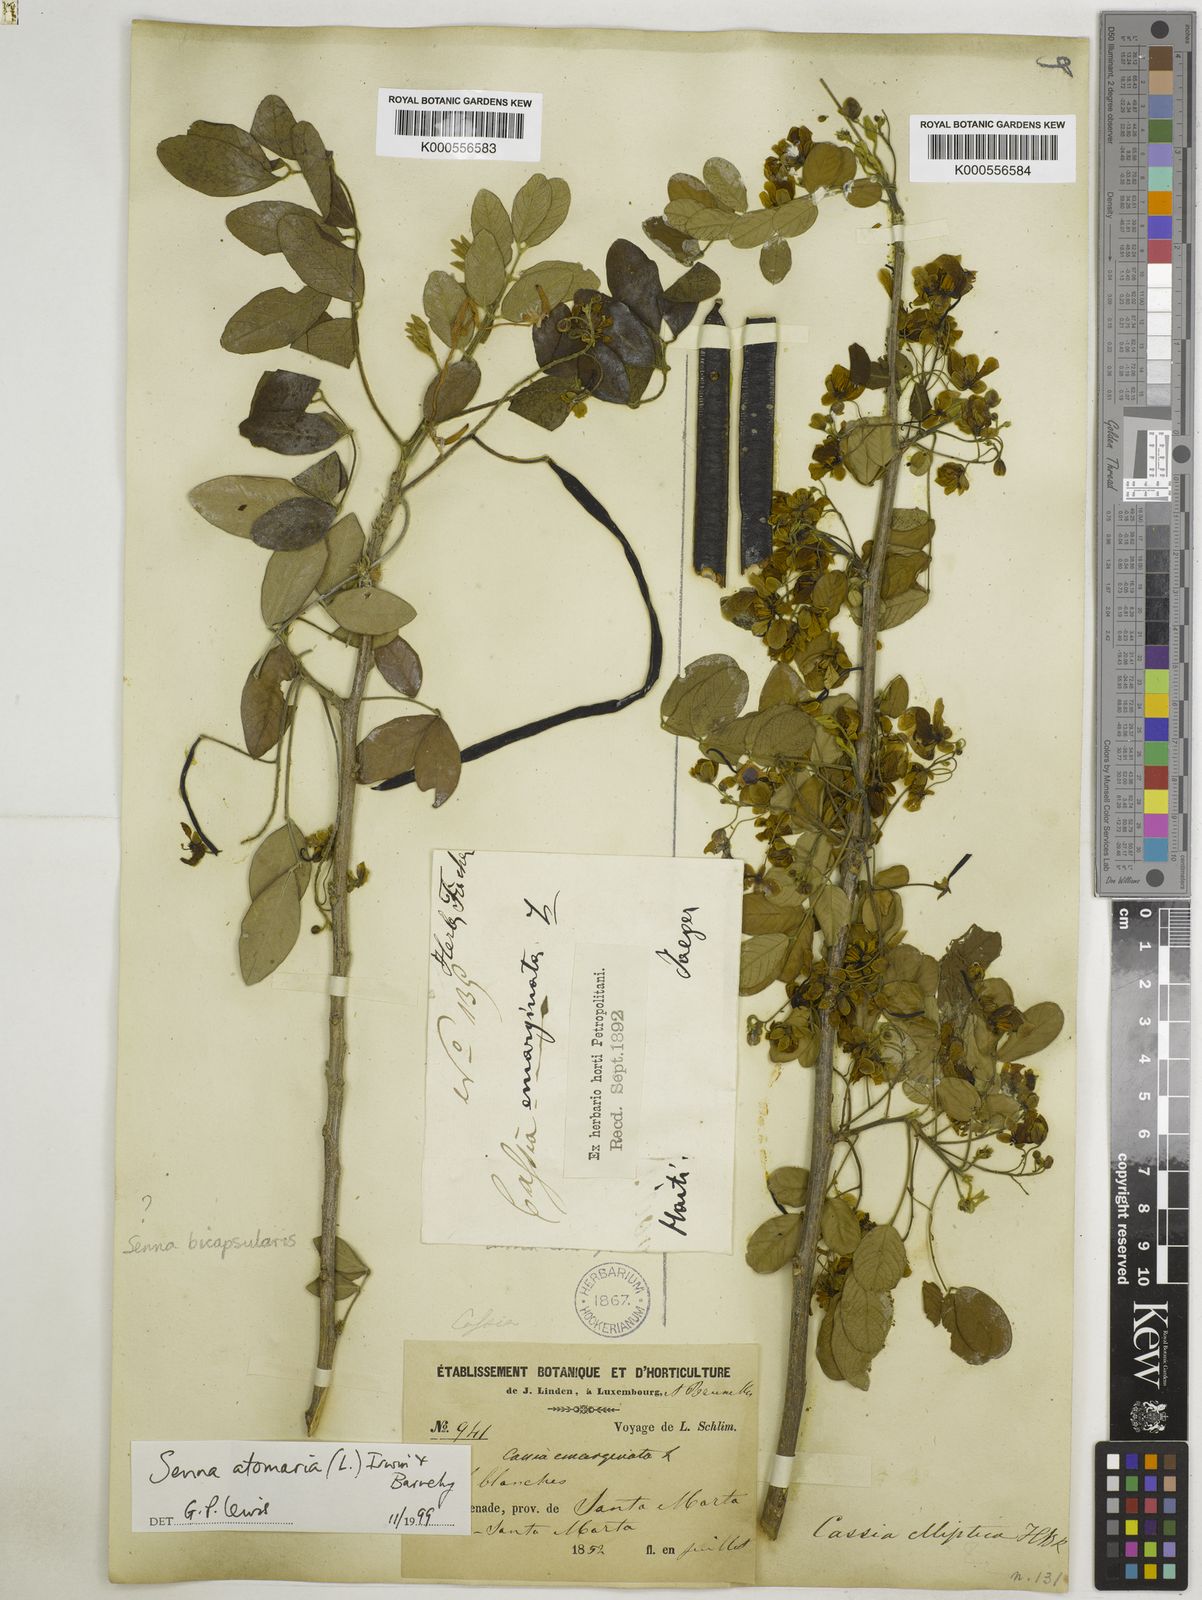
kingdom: Plantae
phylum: Tracheophyta
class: Magnoliopsida
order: Fabales
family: Fabaceae
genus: Senna
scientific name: Senna atomaria
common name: Flor de san jose
